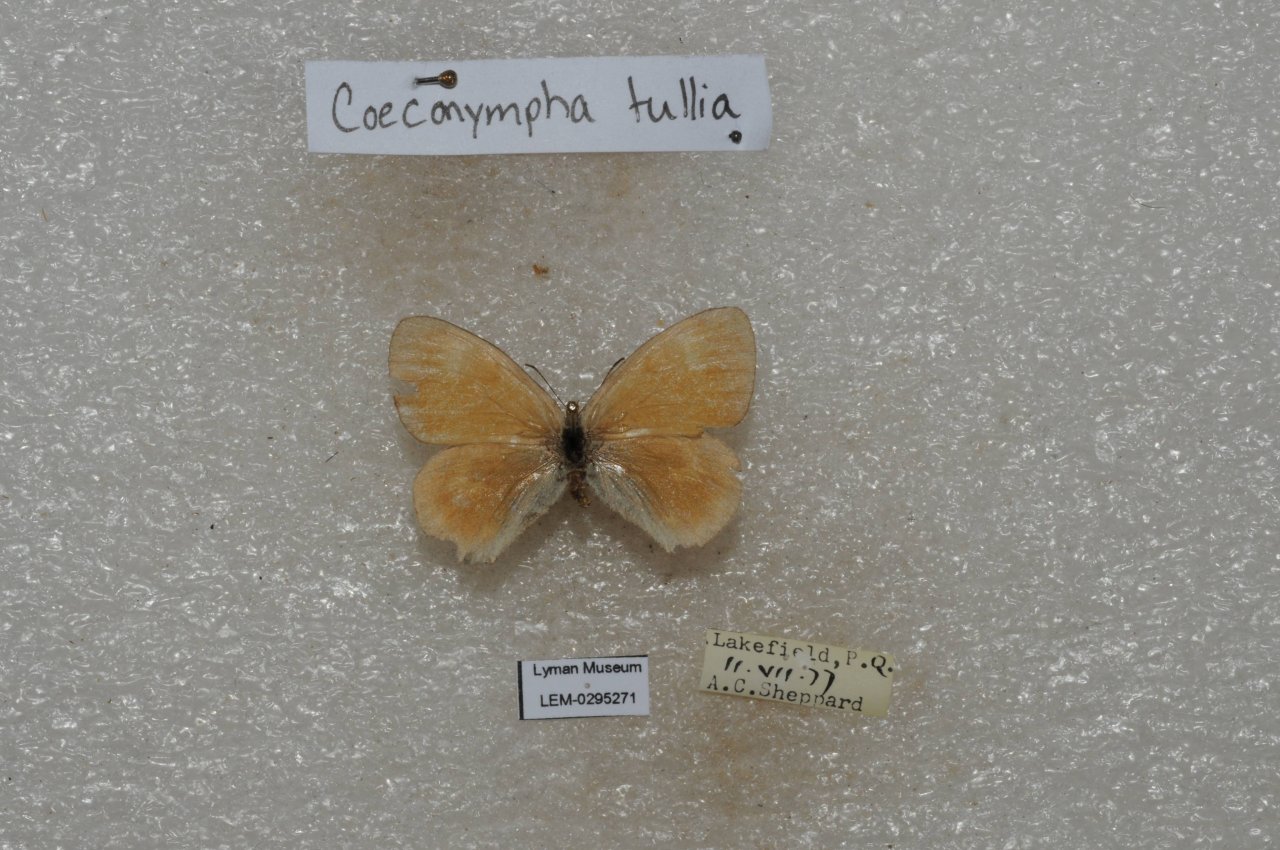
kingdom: Animalia
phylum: Arthropoda
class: Insecta
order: Lepidoptera
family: Nymphalidae
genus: Coenonympha
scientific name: Coenonympha tullia
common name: Large Heath
